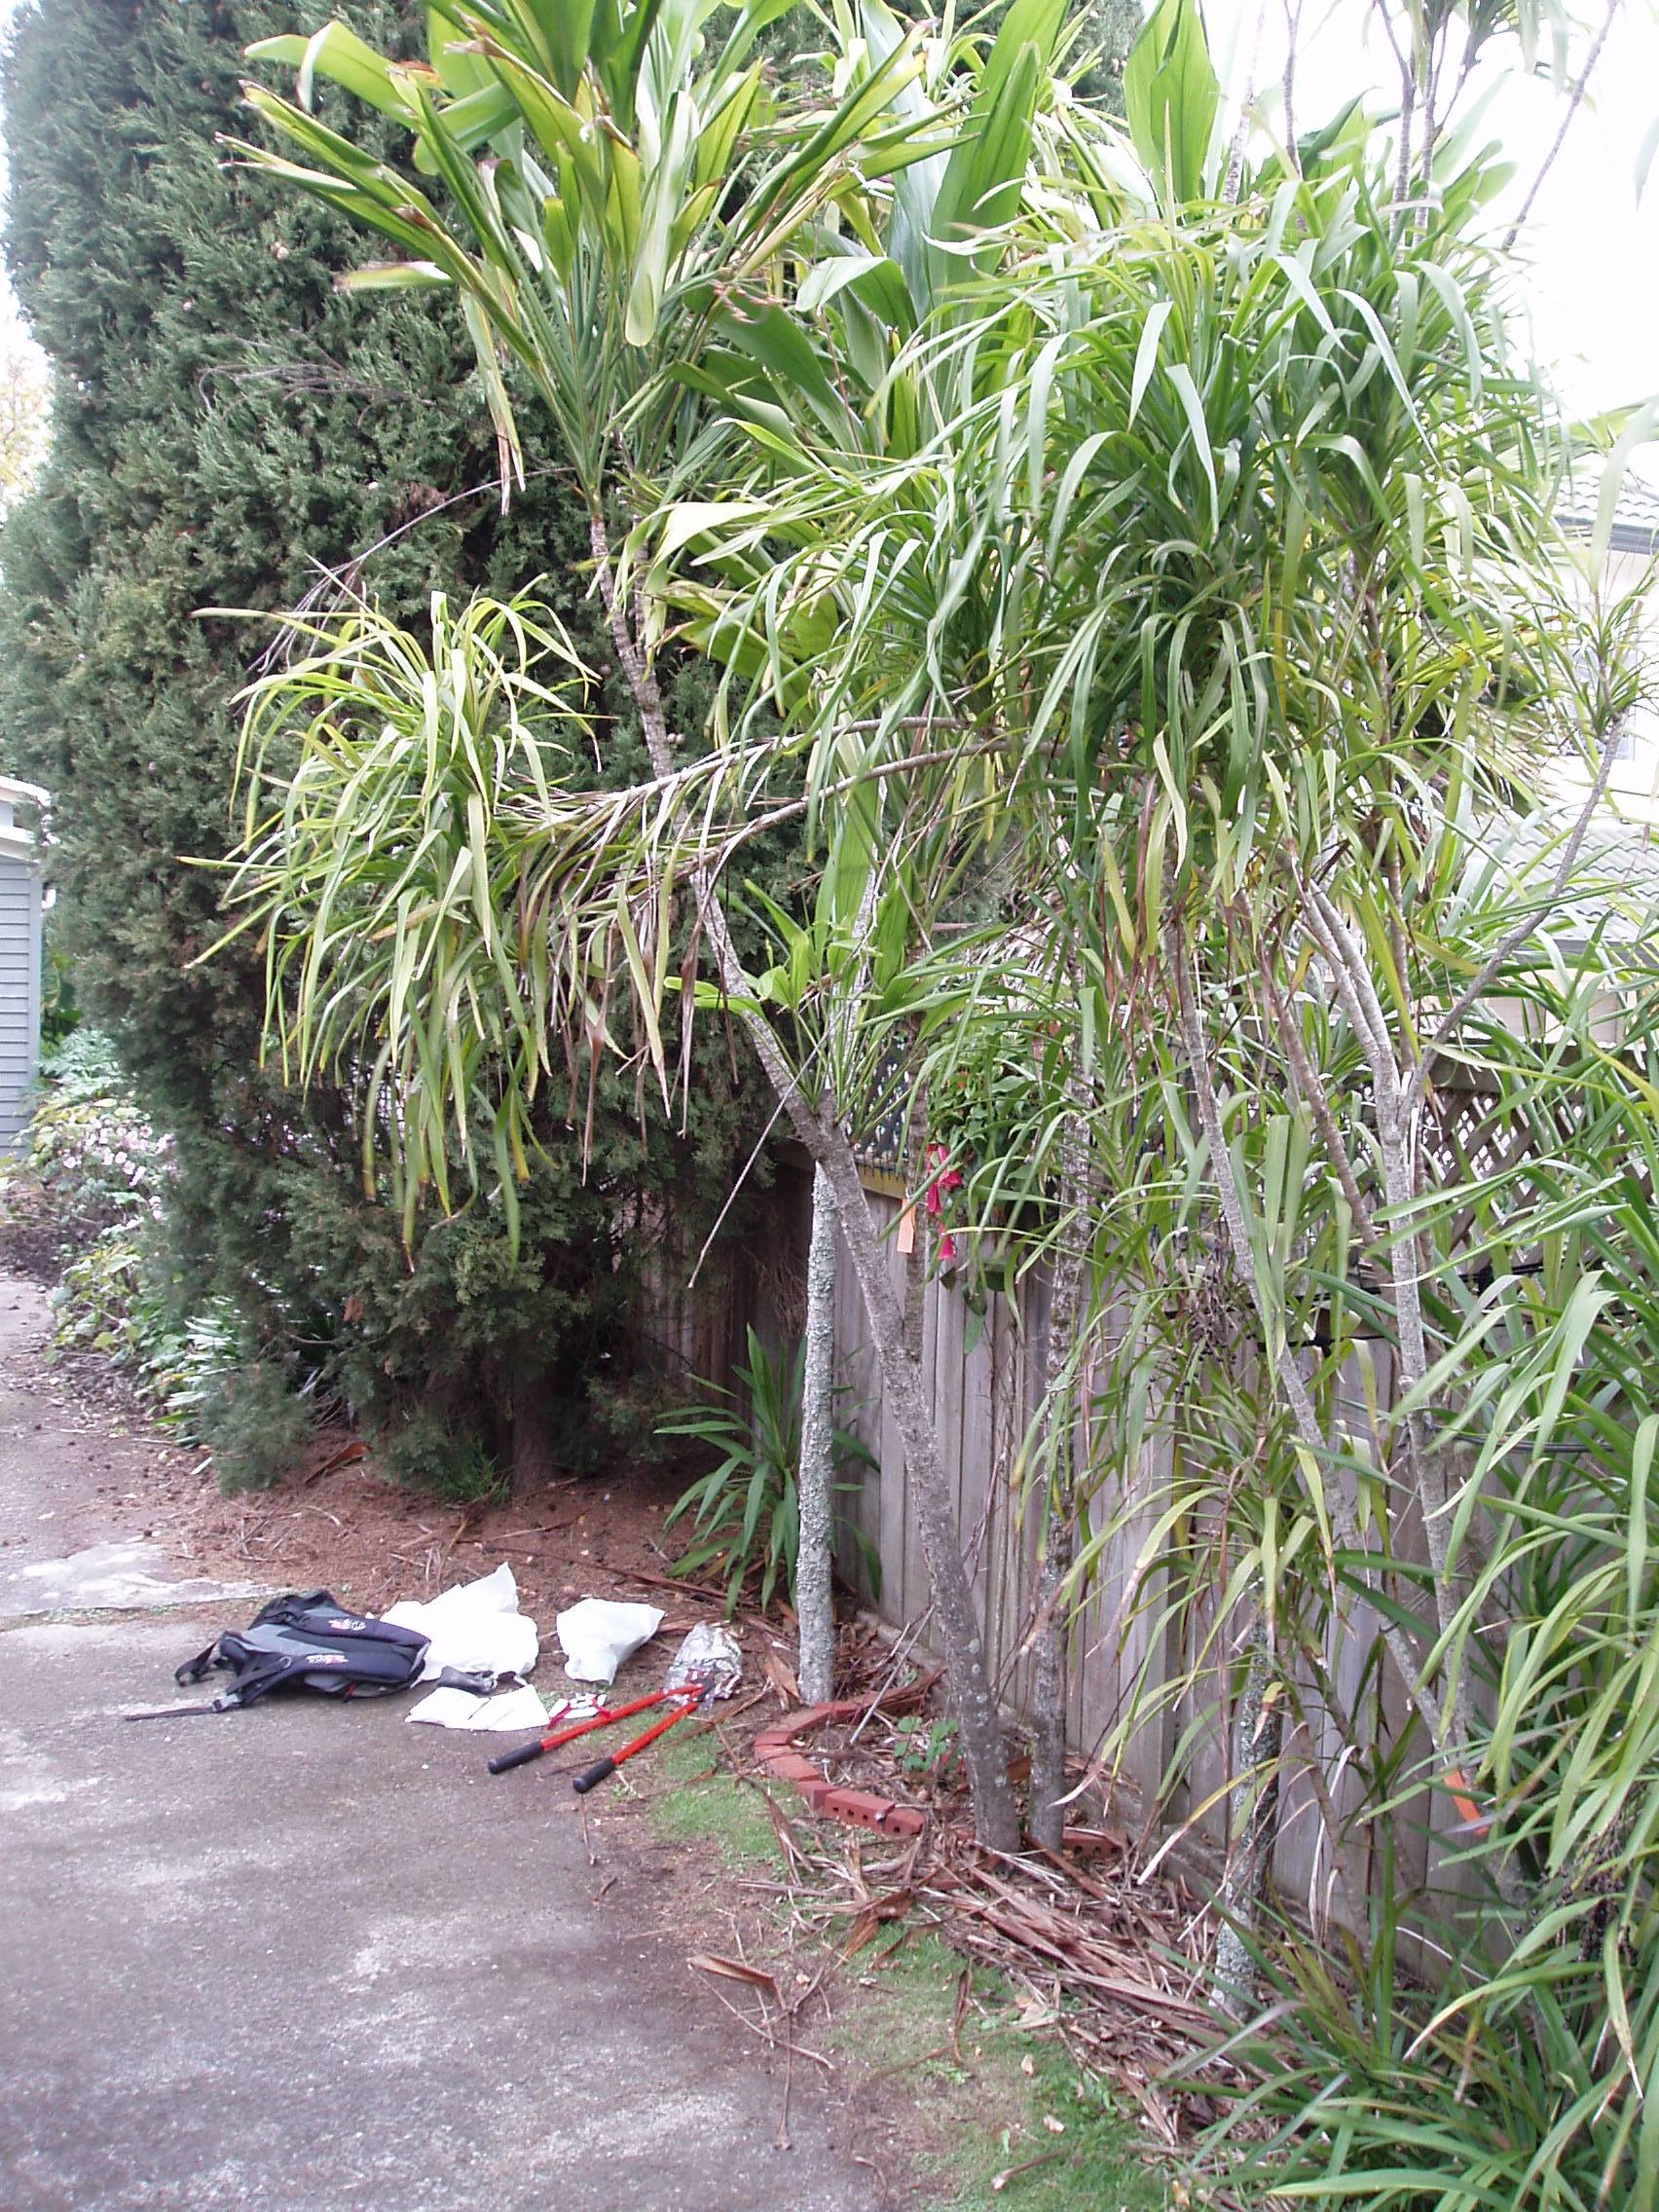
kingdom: Plantae
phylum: Tracheophyta
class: Liliopsida
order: Asparagales
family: Asparagaceae
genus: Cordyline
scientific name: Cordyline stricta
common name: Narrow-leaf palm-lily
